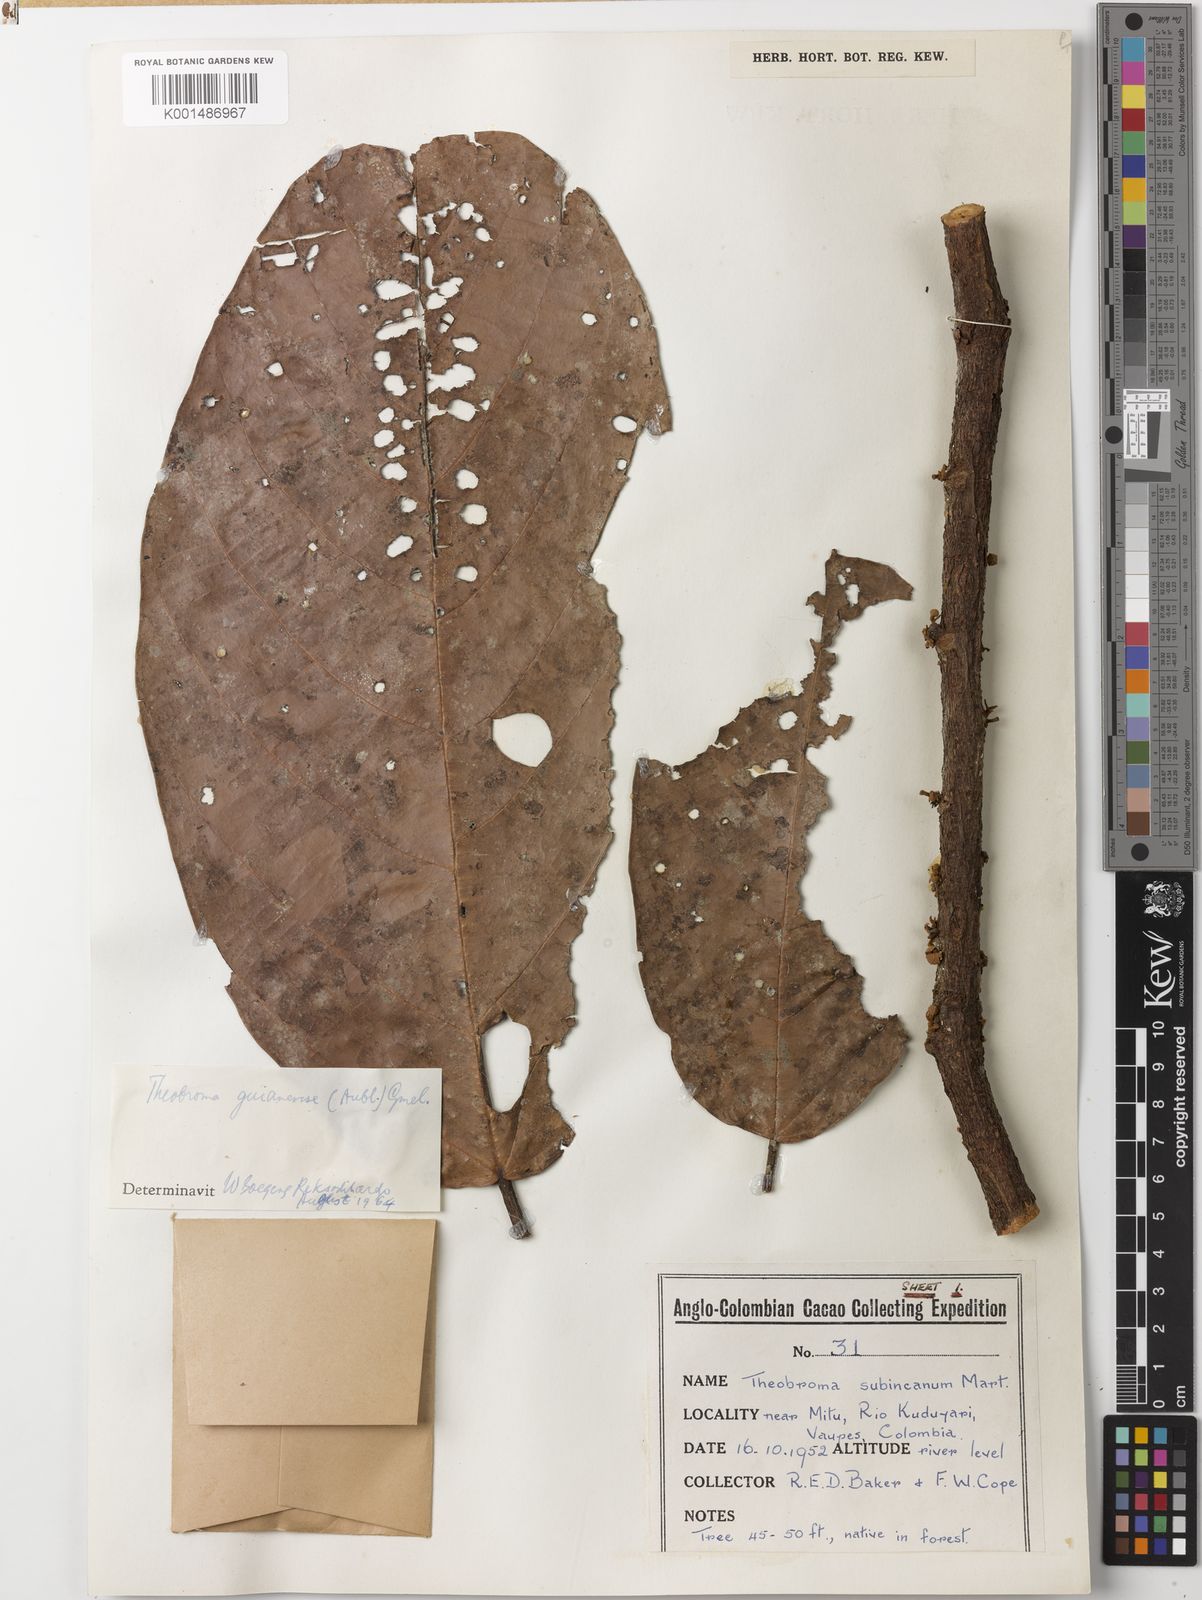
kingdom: Plantae
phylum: Tracheophyta
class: Magnoliopsida
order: Malvales
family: Malvaceae
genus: Theobroma
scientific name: Theobroma subincanum
